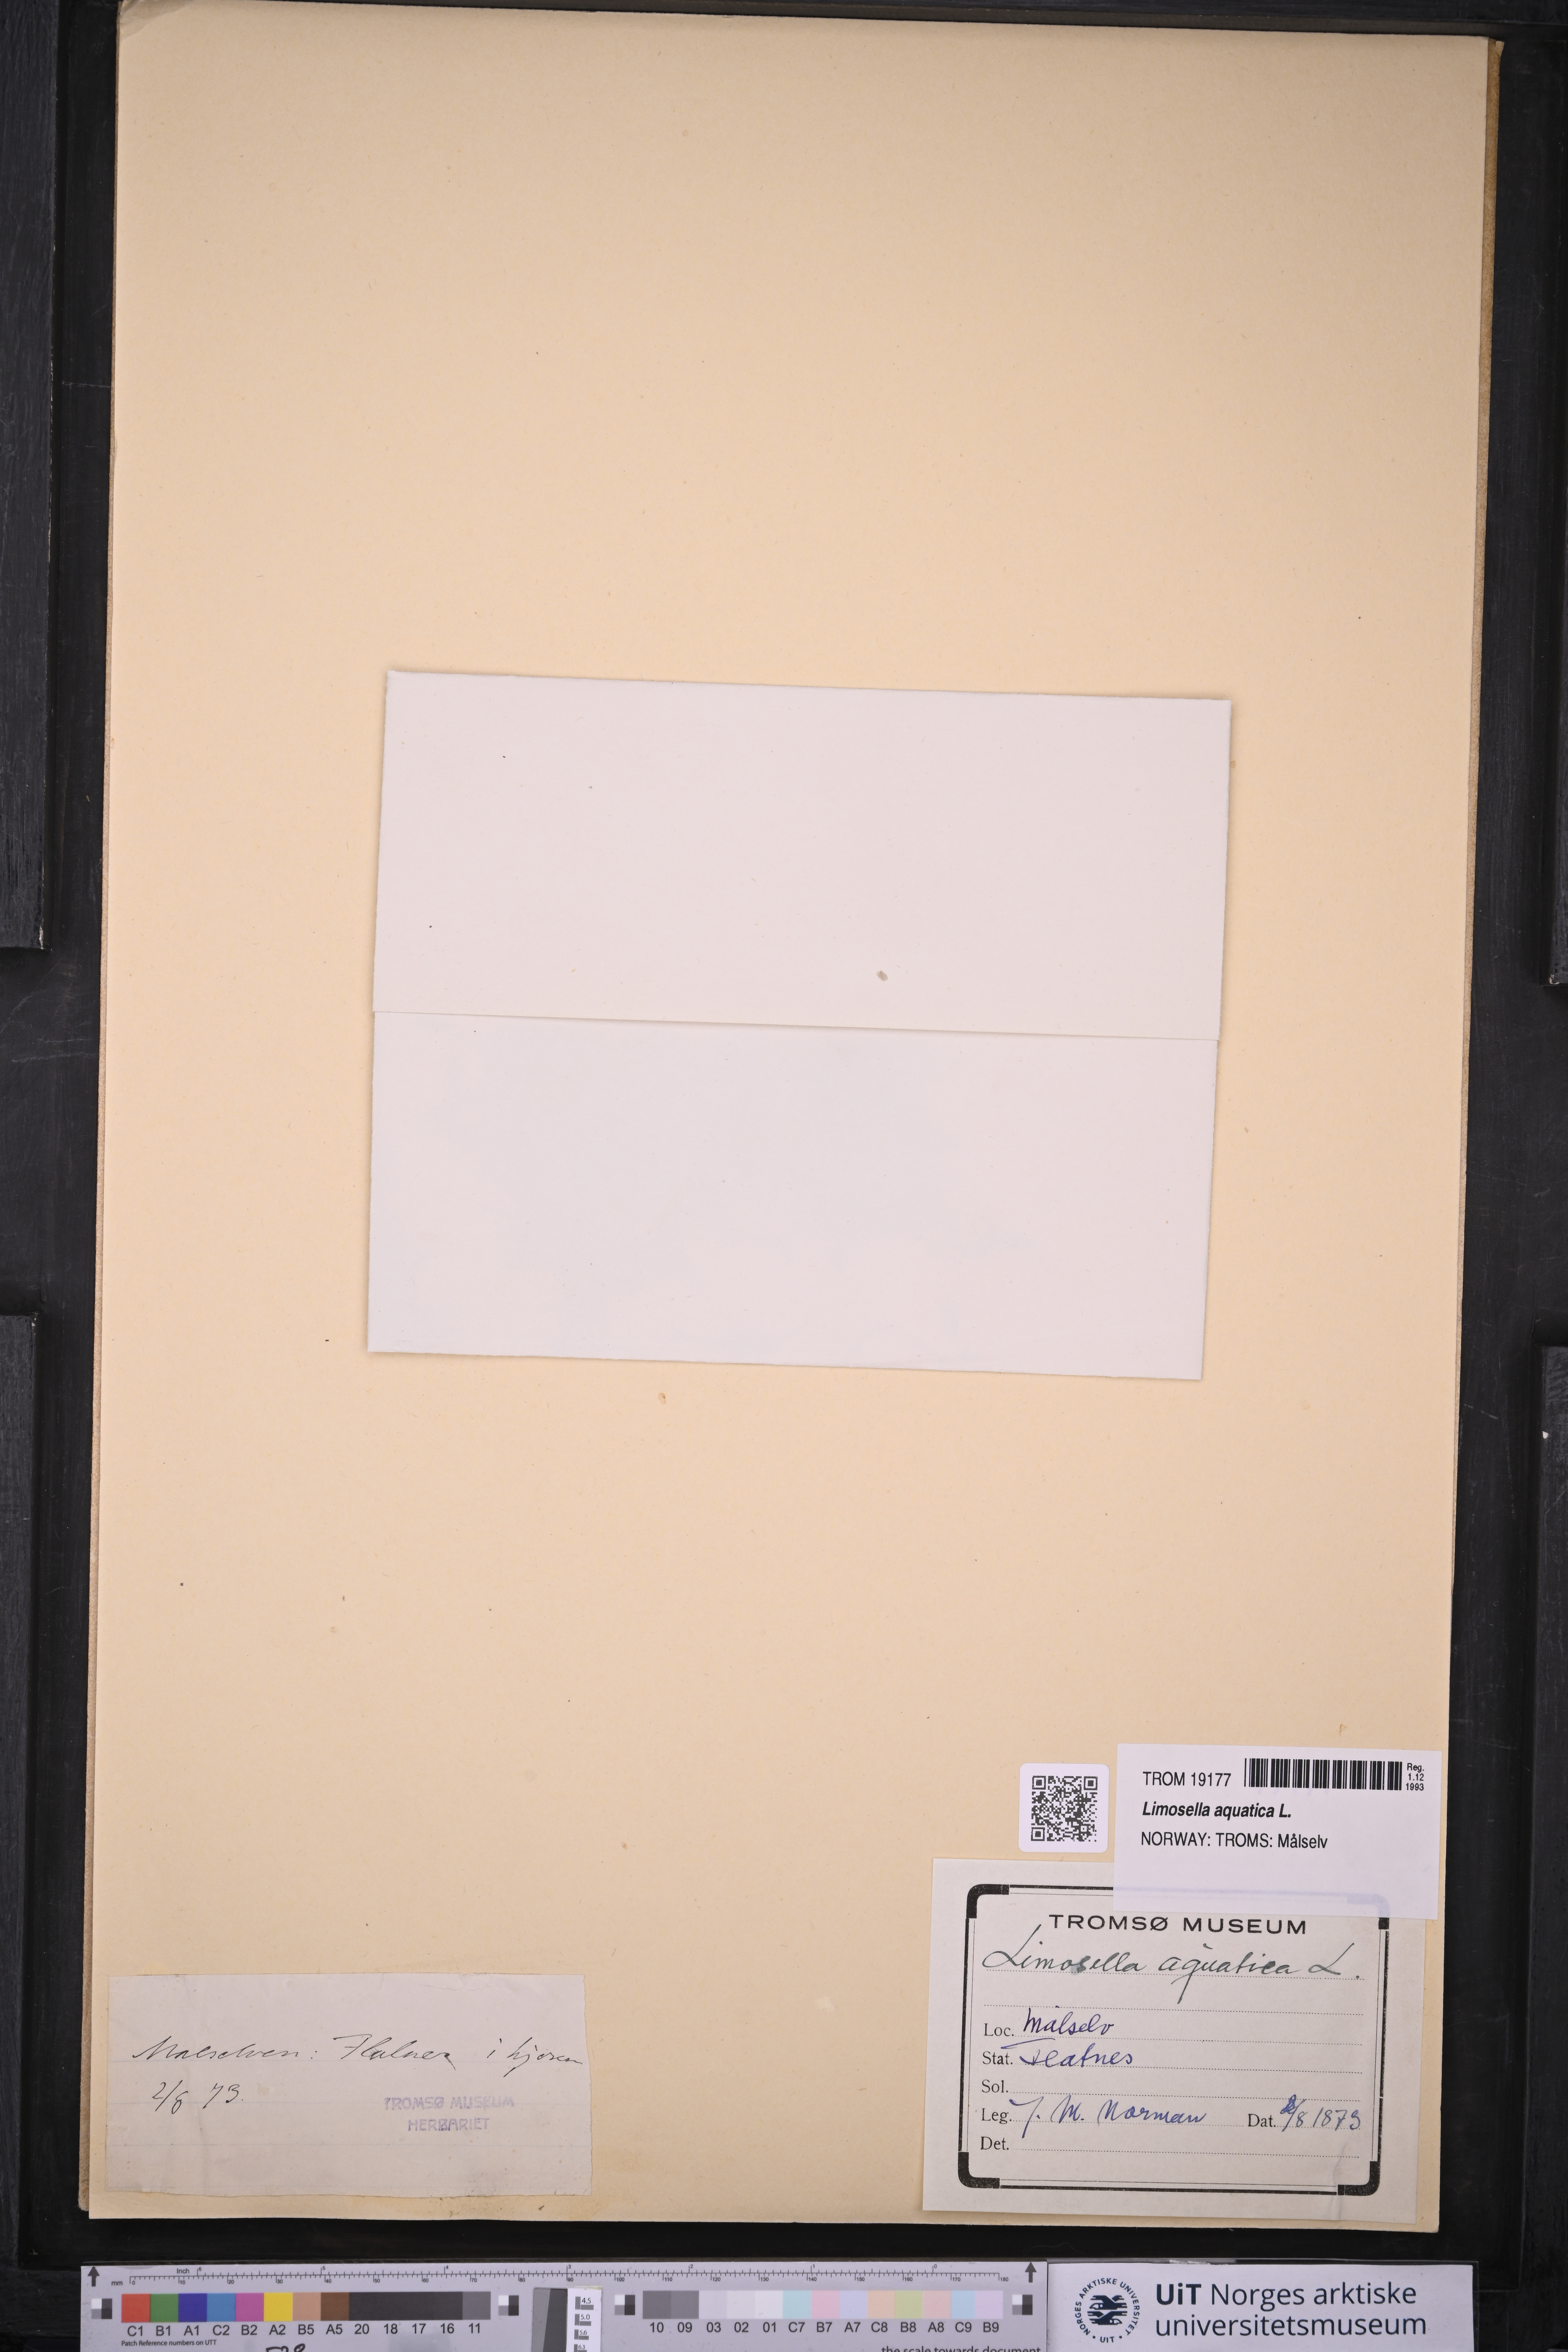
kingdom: Plantae
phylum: Tracheophyta
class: Magnoliopsida
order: Lamiales
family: Scrophulariaceae
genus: Limosella
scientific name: Limosella aquatica
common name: Mudwort
